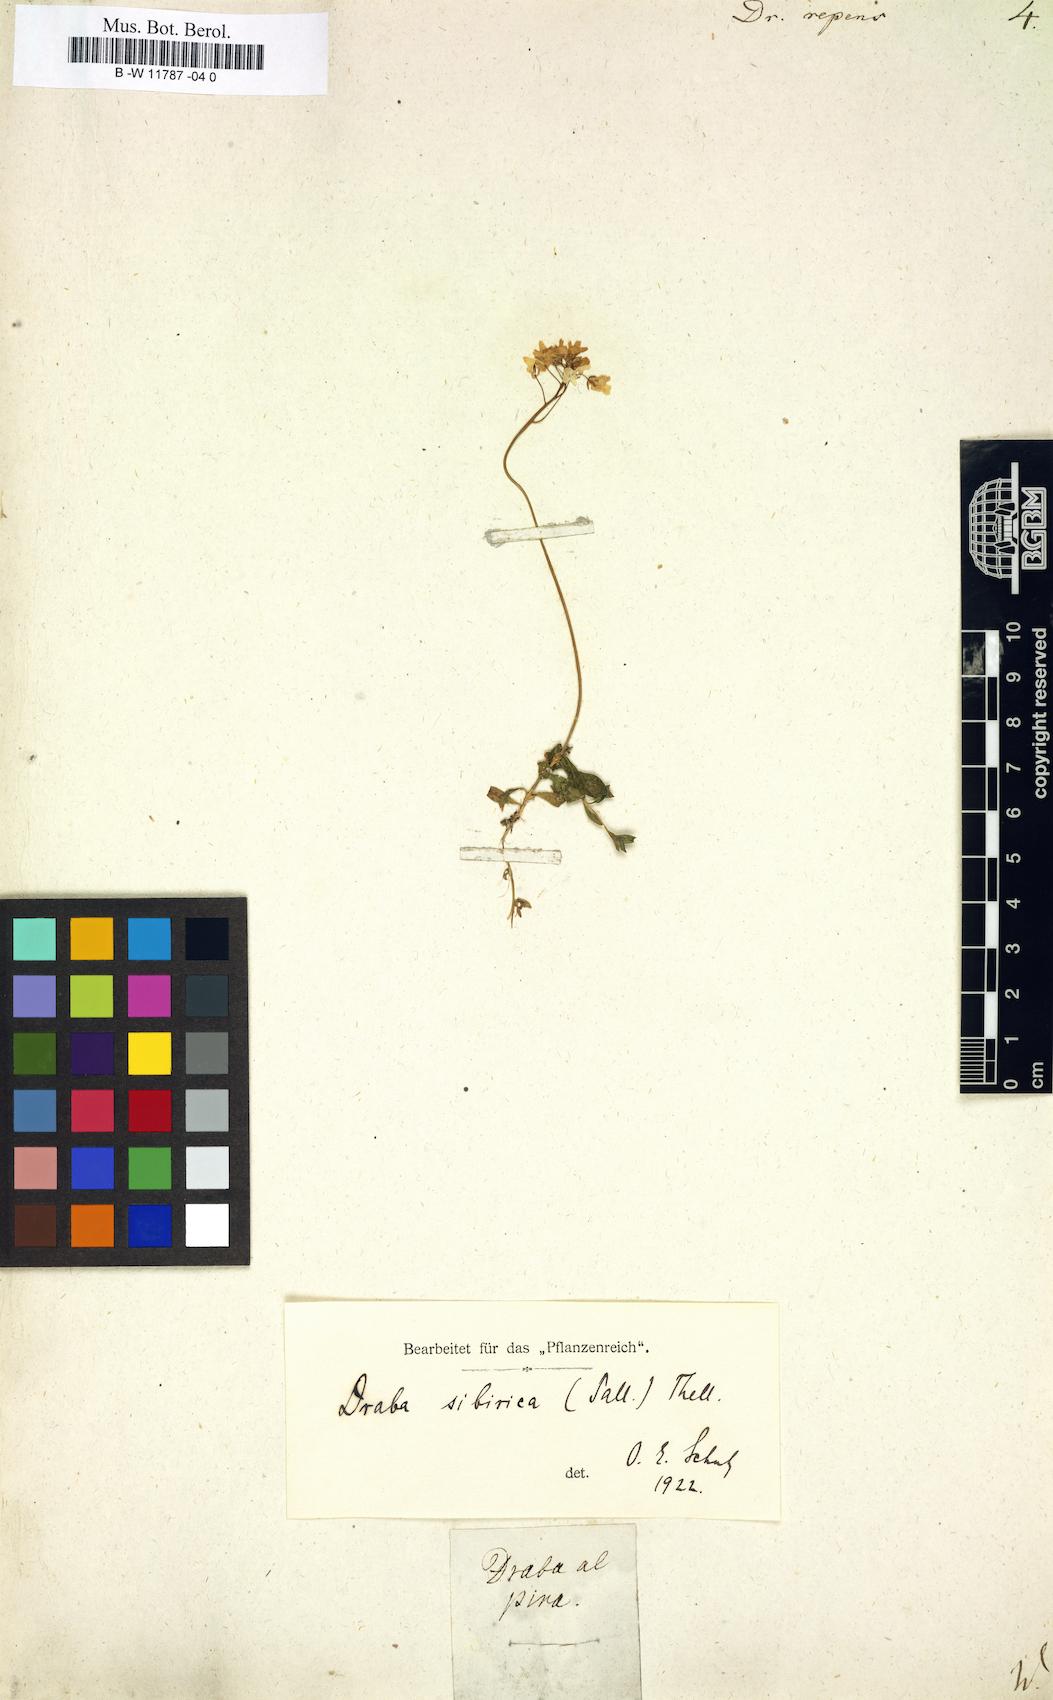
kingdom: Plantae
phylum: Tracheophyta
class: Magnoliopsida
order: Brassicales
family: Brassicaceae
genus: Draba
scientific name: Draba sibirica
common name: Siberian draba
